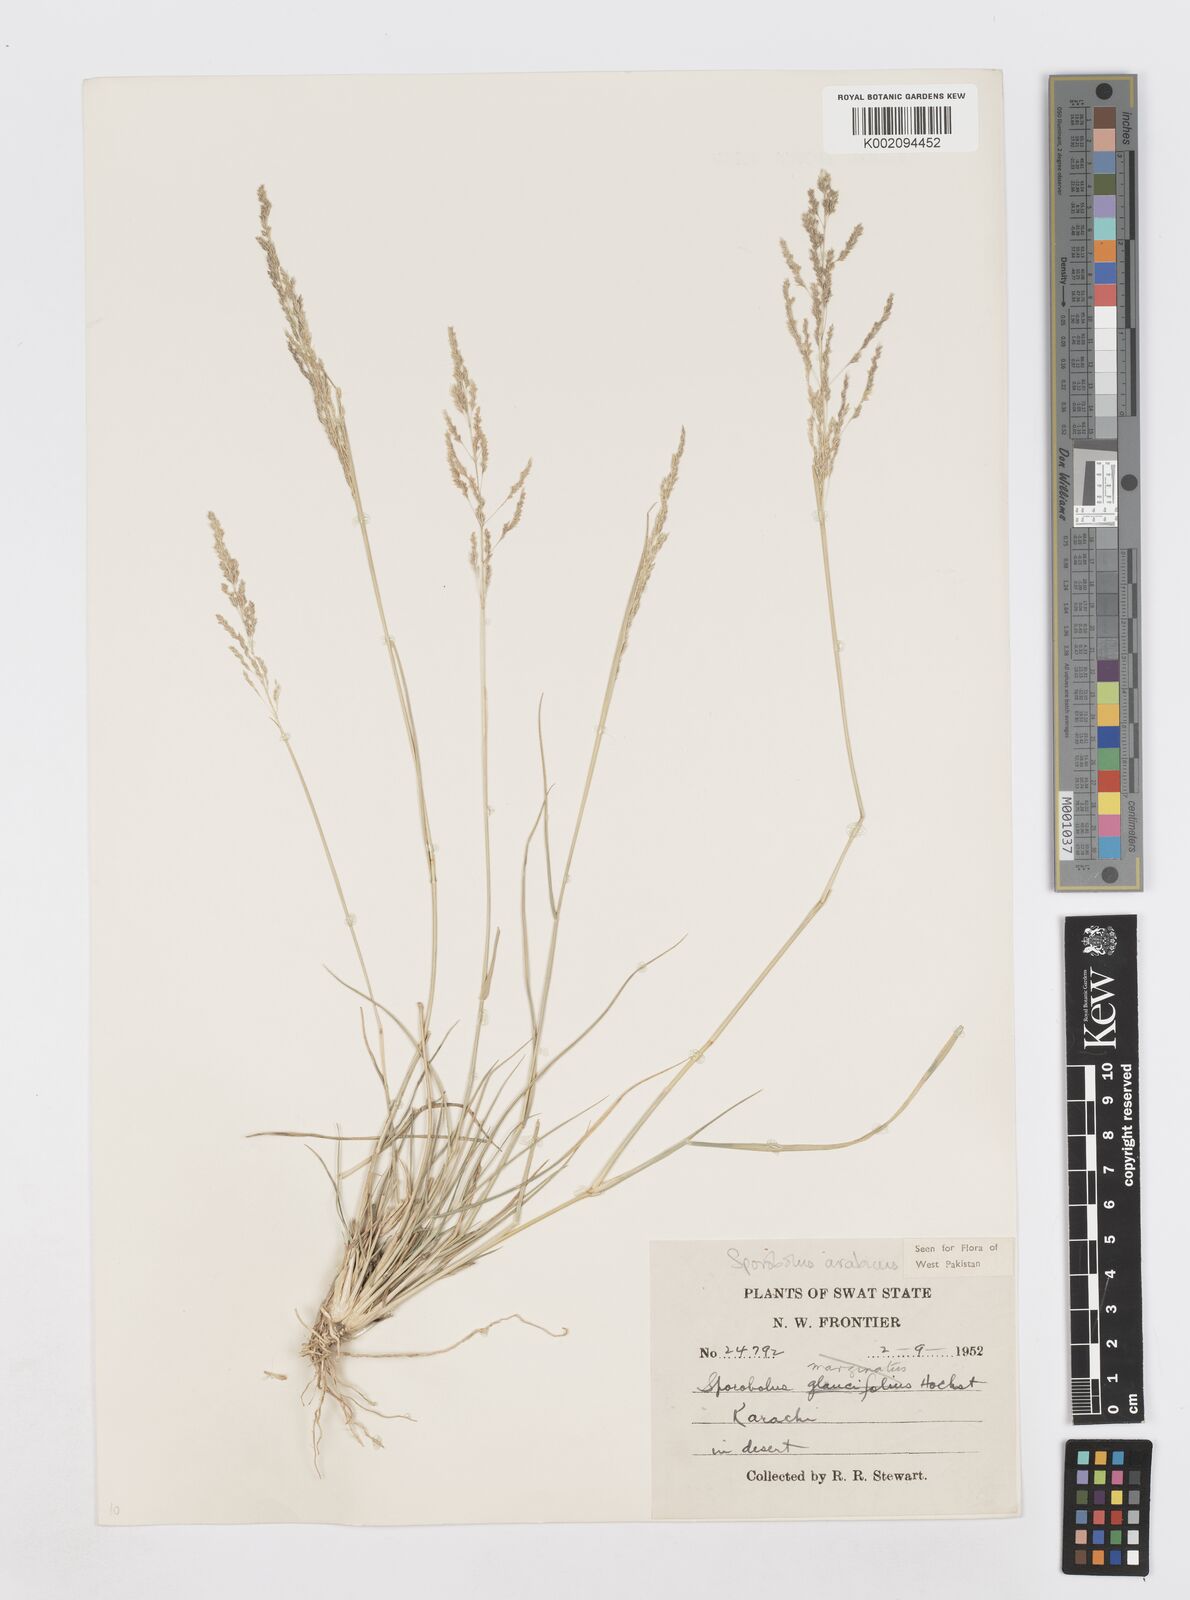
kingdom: Plantae
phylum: Tracheophyta
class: Liliopsida
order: Poales
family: Poaceae
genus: Sporobolus
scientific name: Sporobolus ioclados
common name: Pan dropseed
